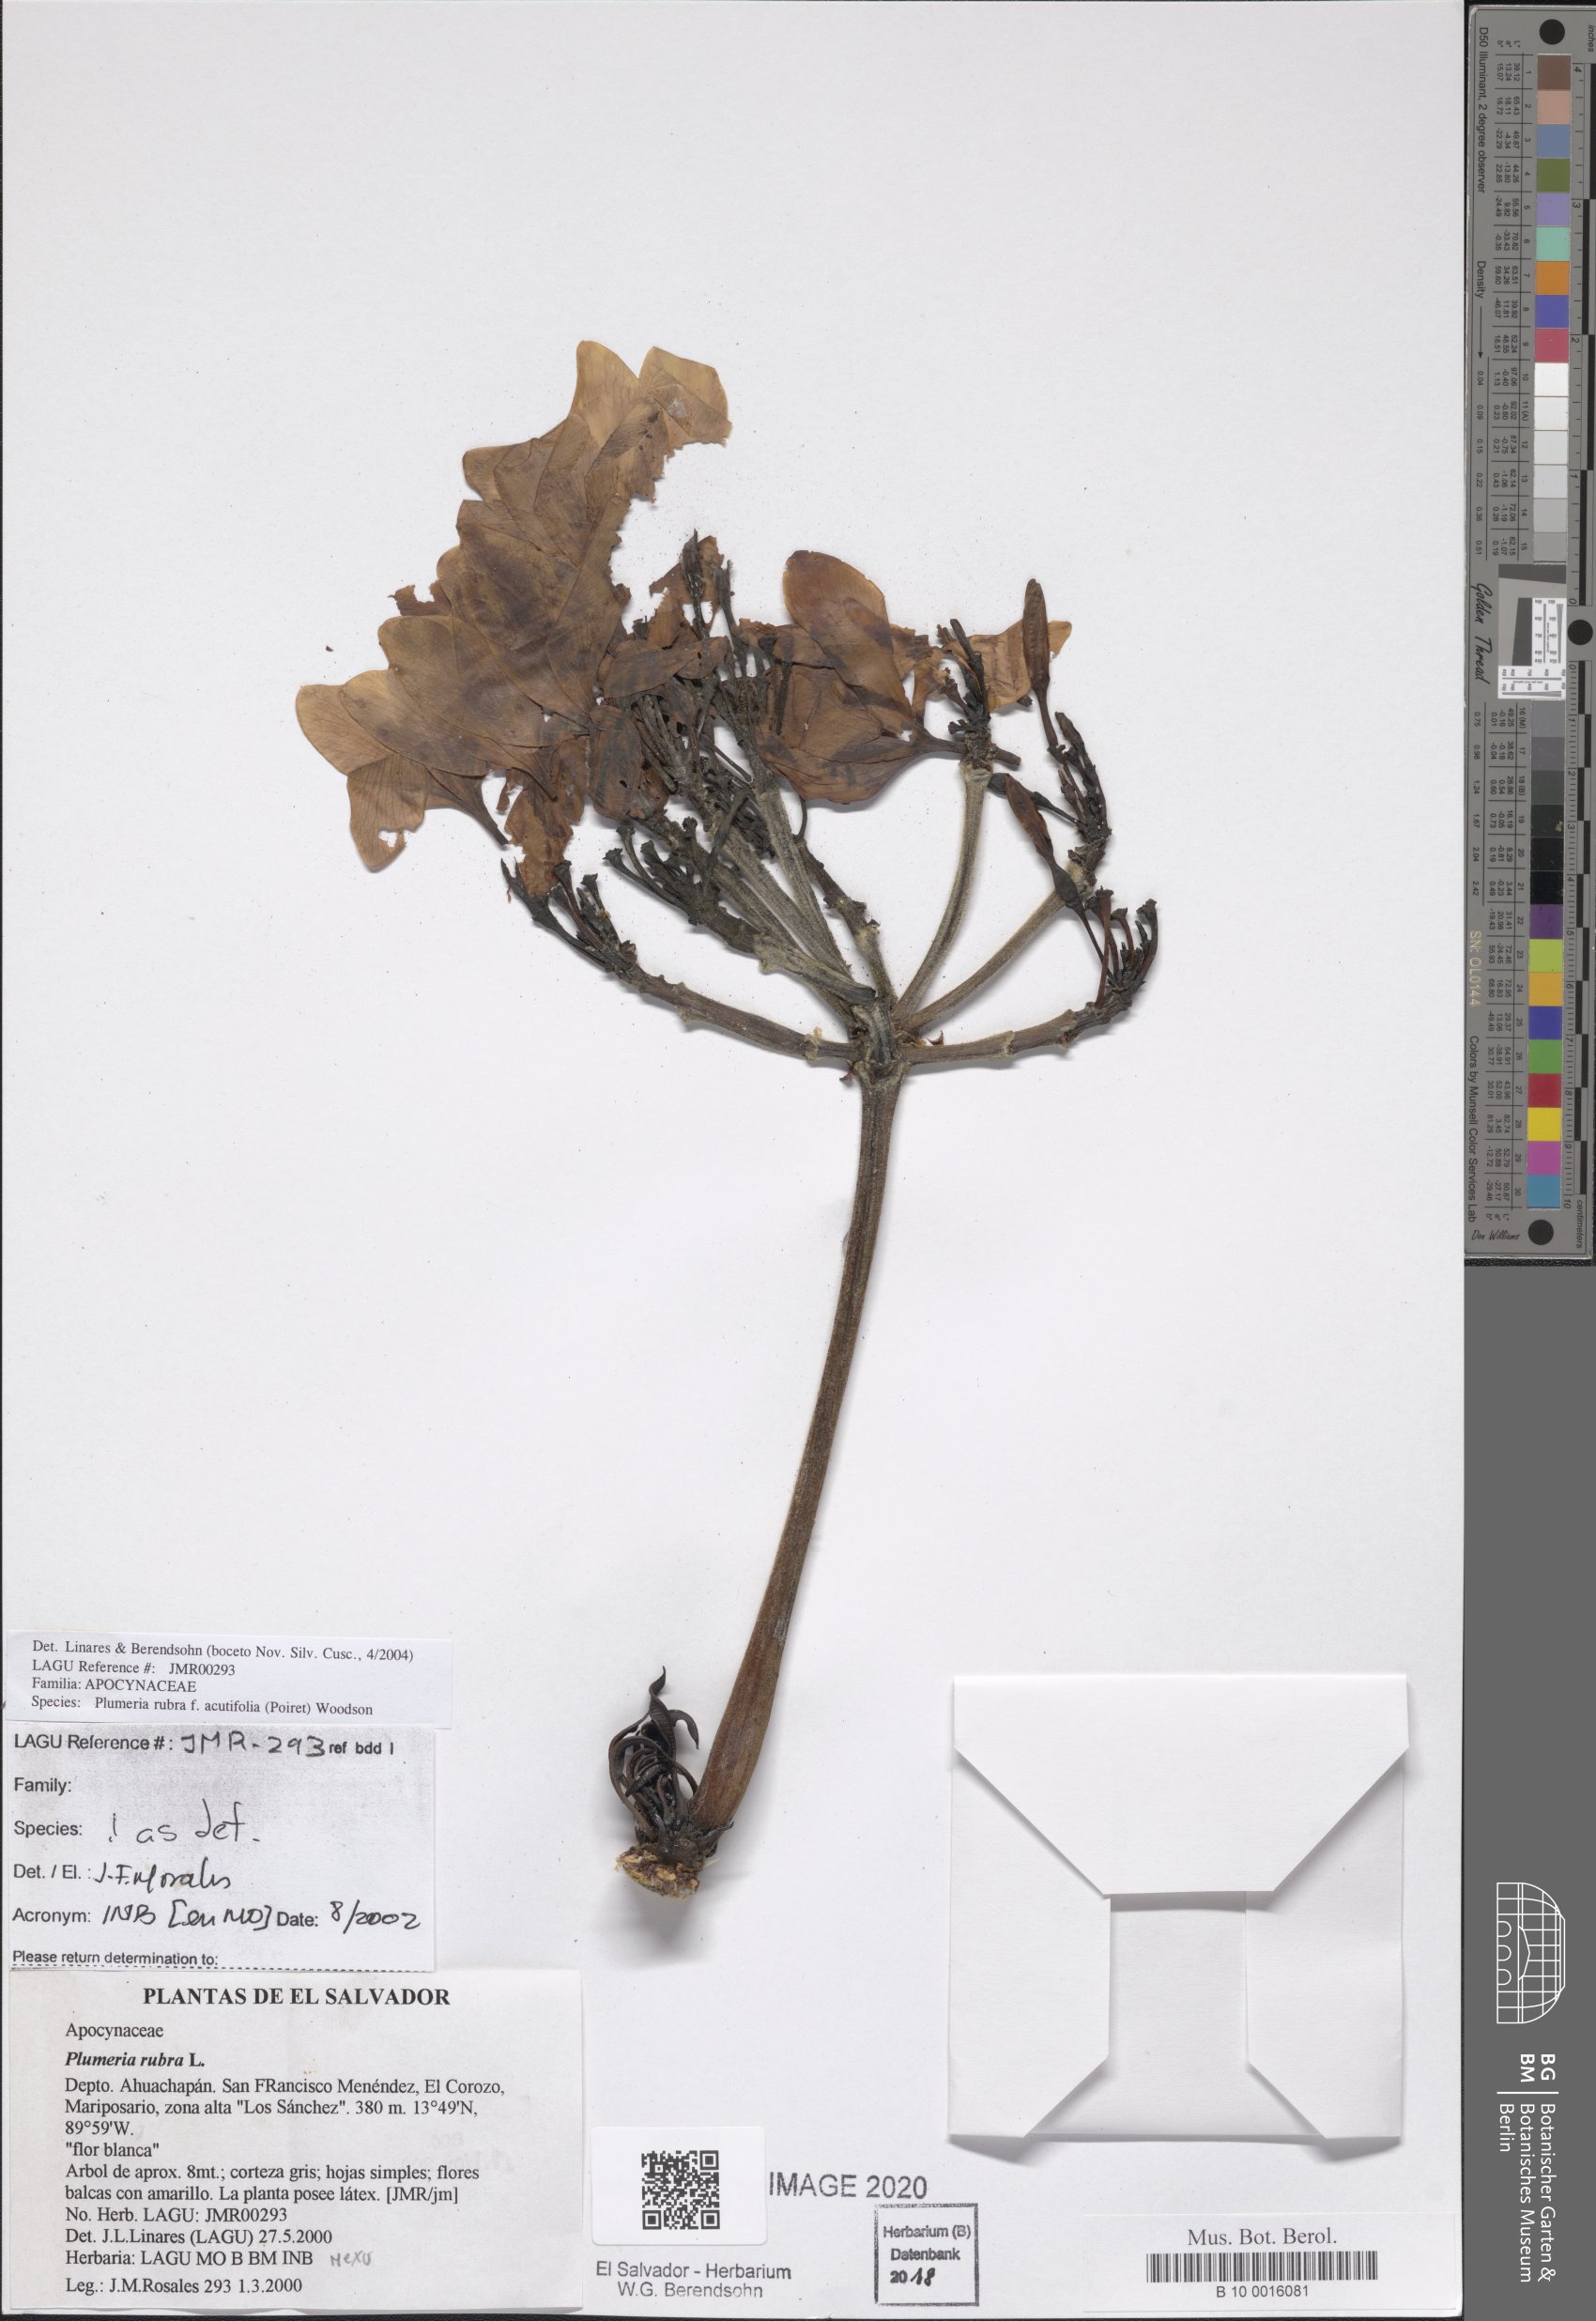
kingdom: Plantae
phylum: Tracheophyta
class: Magnoliopsida
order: Gentianales
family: Apocynaceae
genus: Plumeria
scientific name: Plumeria rubra
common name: Pagoda-tree
